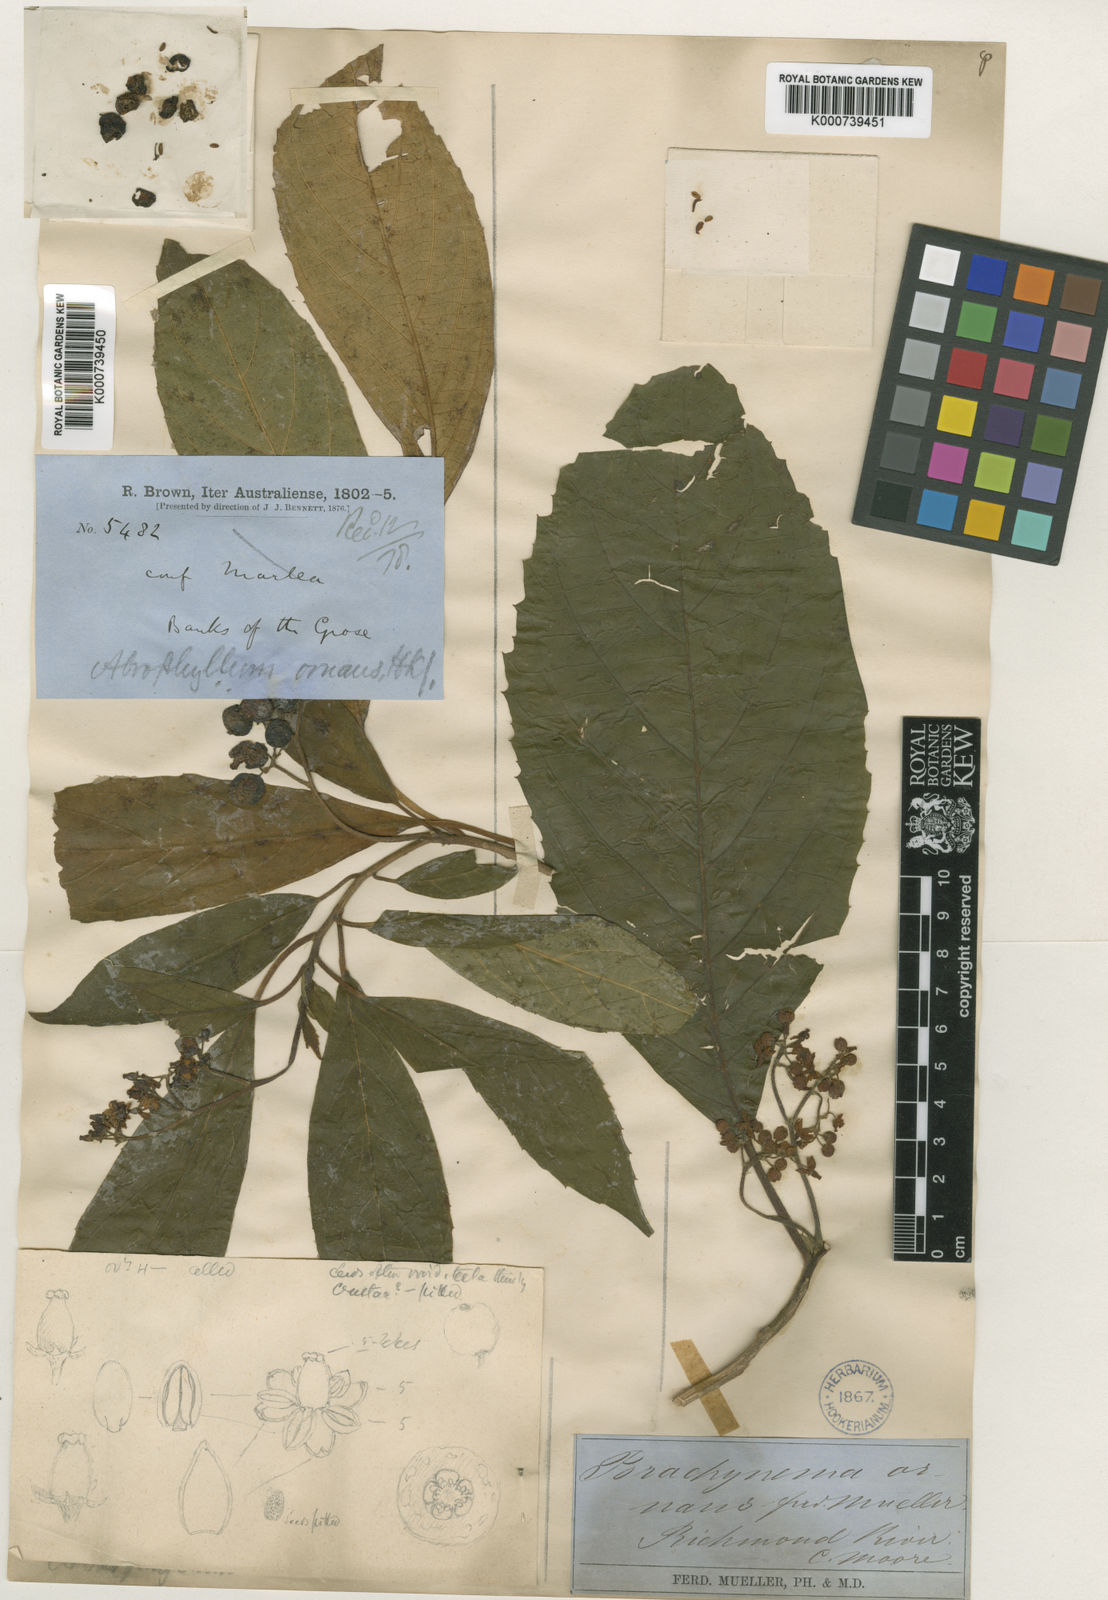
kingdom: Plantae
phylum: Tracheophyta
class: Magnoliopsida
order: Asterales
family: Rousseaceae
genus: Abrophyllum
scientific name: Abrophyllum ornans
